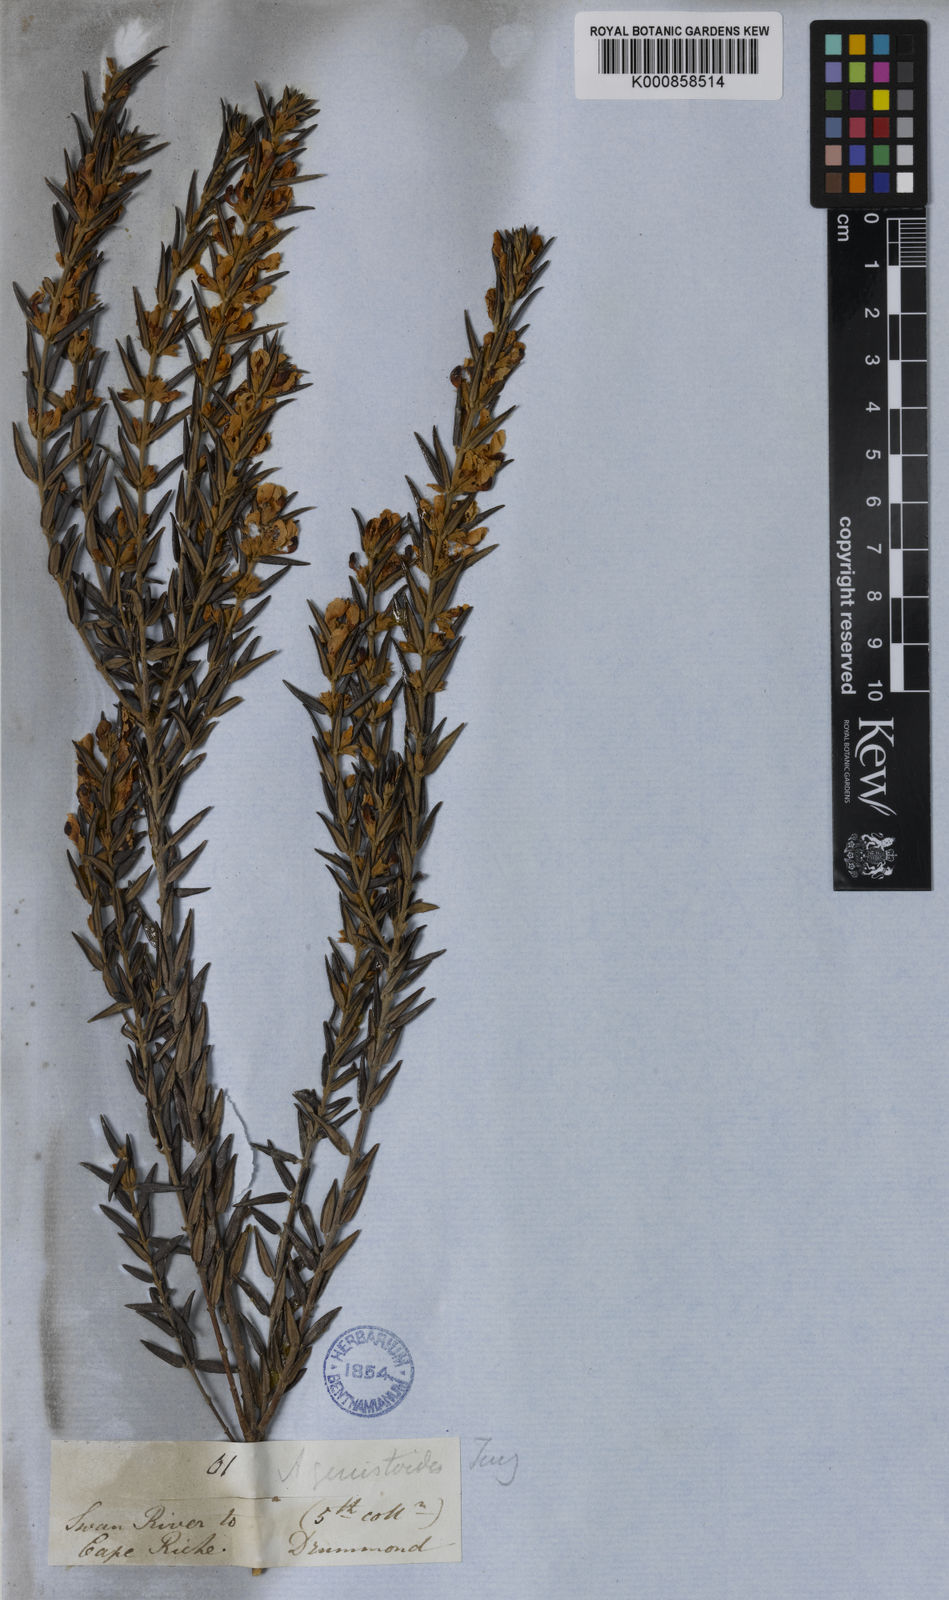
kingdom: Plantae
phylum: Tracheophyta
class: Magnoliopsida
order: Fabales
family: Fabaceae
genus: Aotus
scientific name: Aotus genistoides
